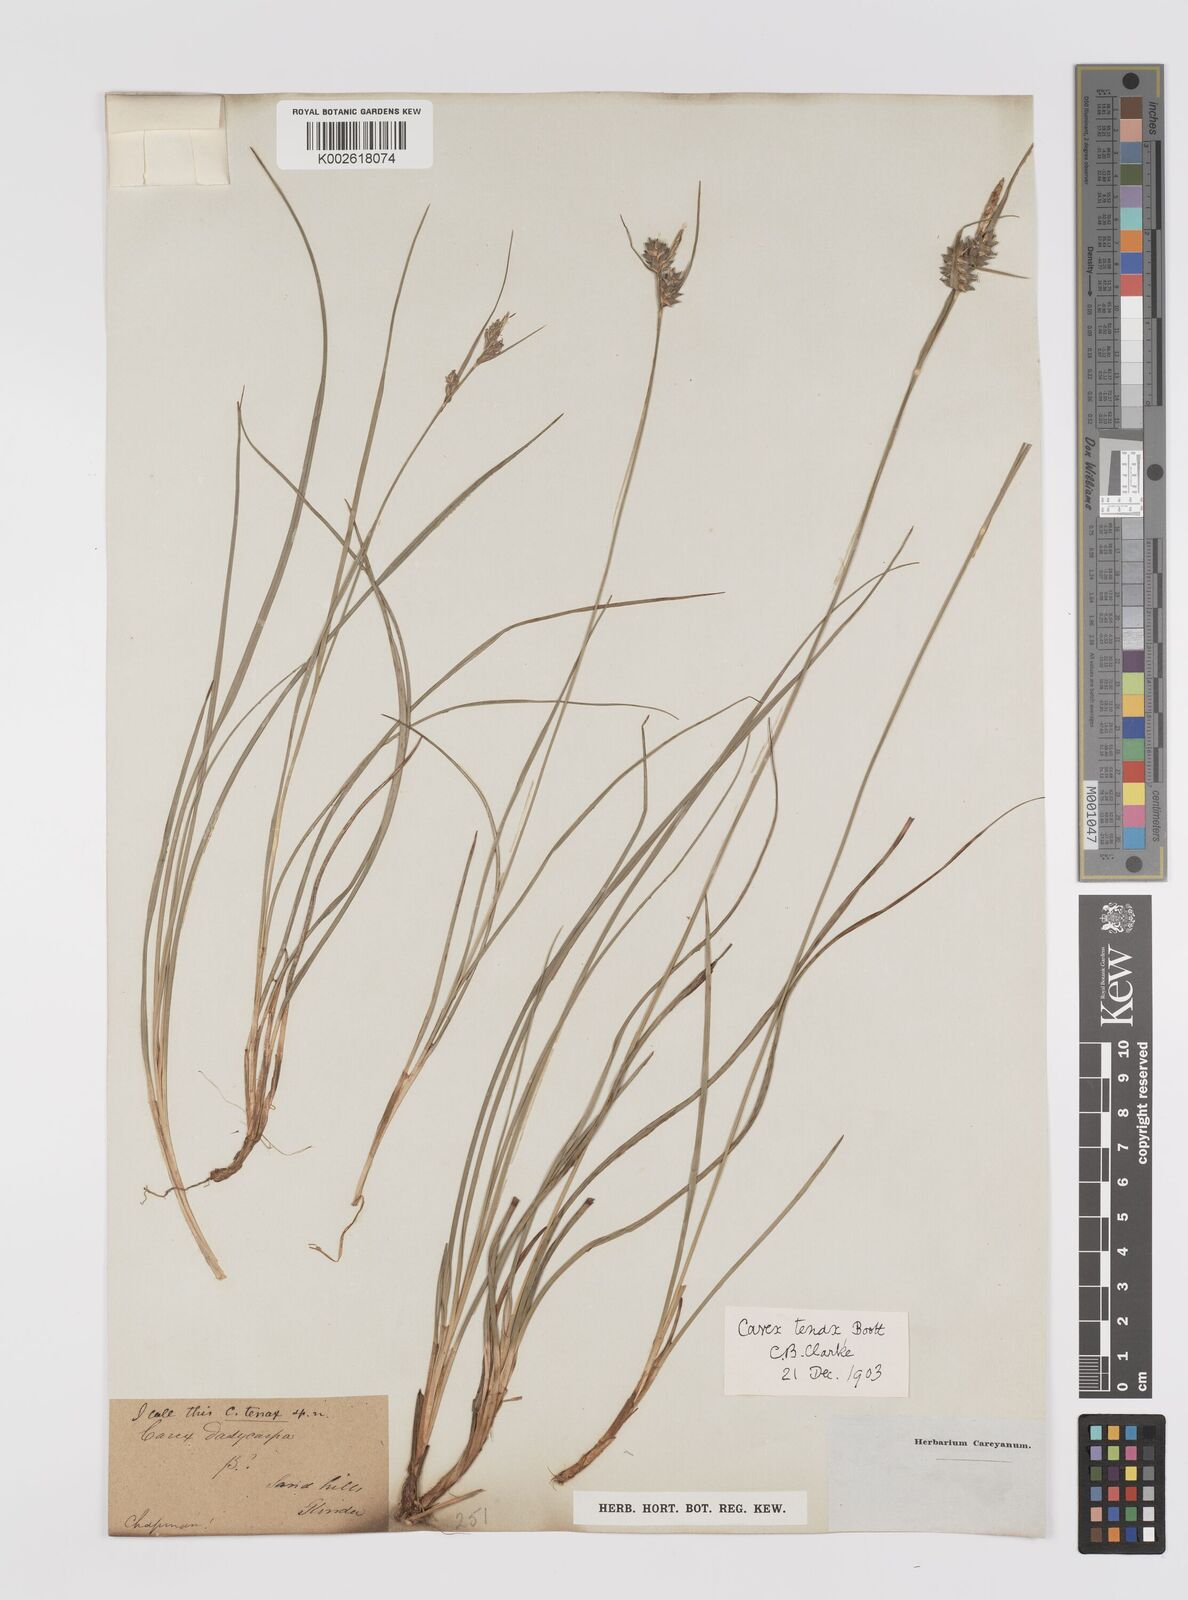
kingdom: Plantae
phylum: Tracheophyta
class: Liliopsida
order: Poales
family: Cyperaceae
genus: Carex
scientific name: Carex tenax
